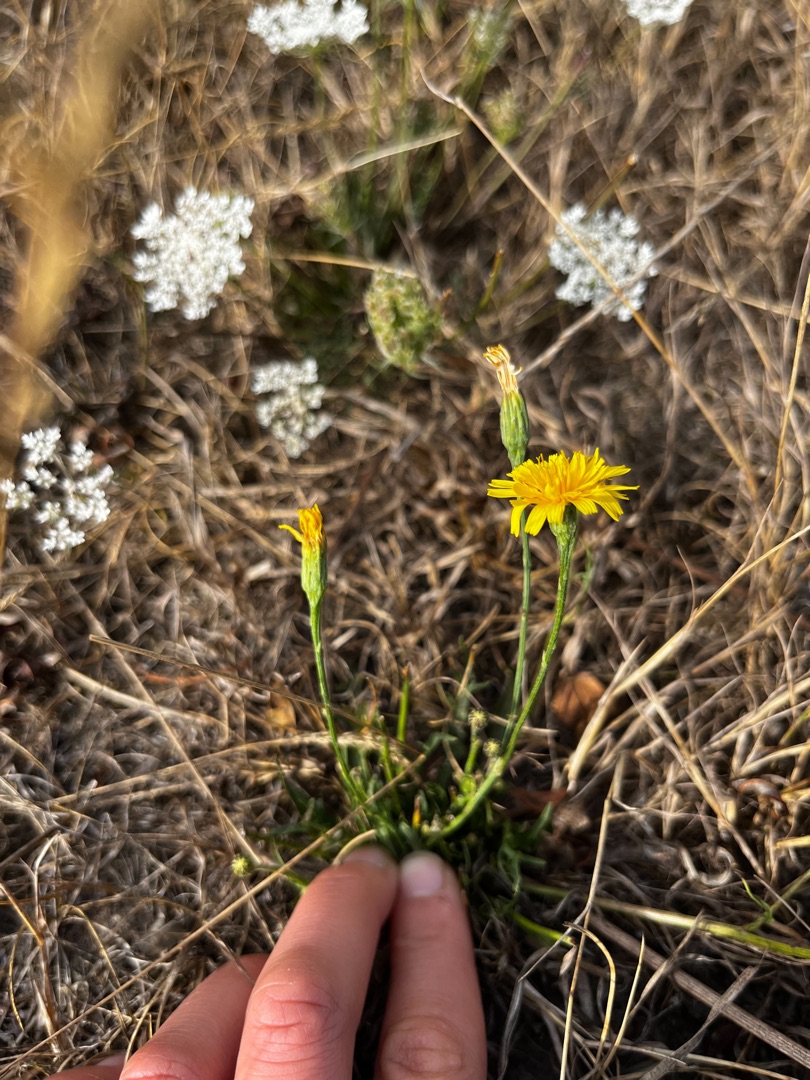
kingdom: Plantae
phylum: Tracheophyta
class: Magnoliopsida
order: Asterales
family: Asteraceae
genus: Scorzoneroides
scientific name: Scorzoneroides autumnalis
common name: Høst-borst
